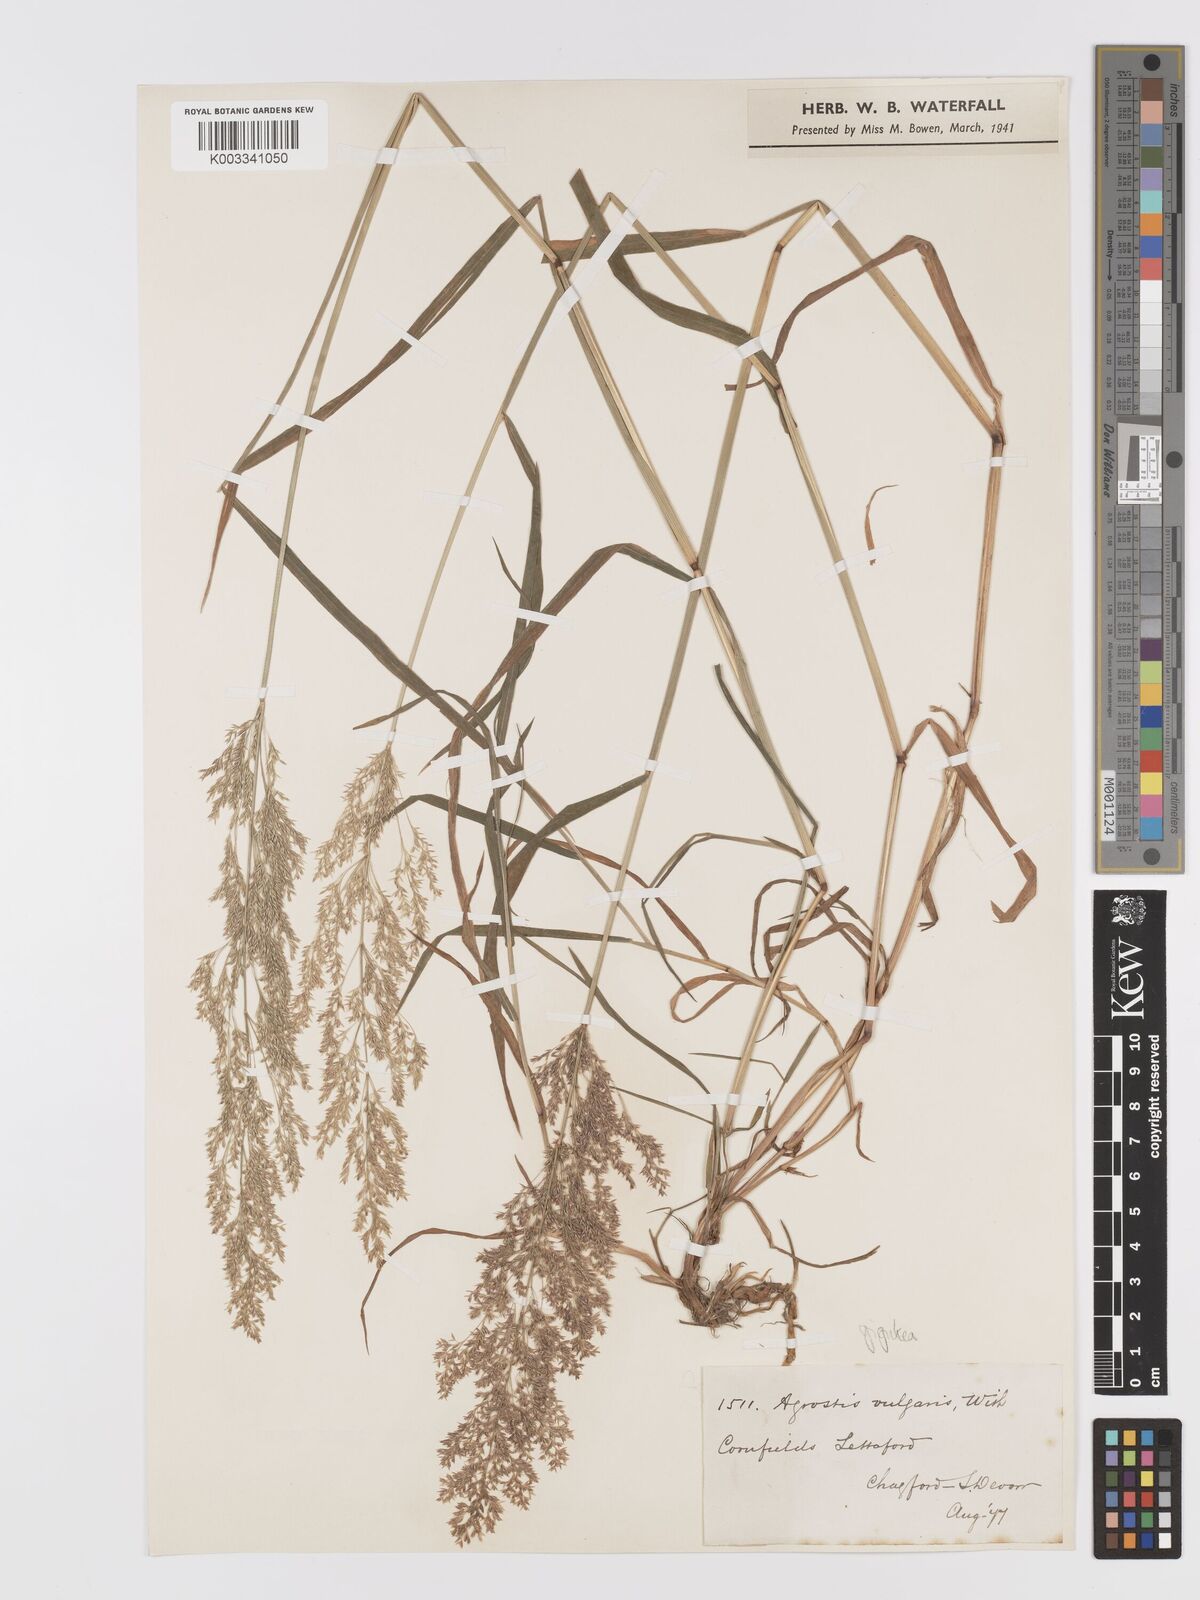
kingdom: Plantae
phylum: Tracheophyta
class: Liliopsida
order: Poales
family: Poaceae
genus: Agrostis
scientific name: Agrostis gigantea
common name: Black bent
